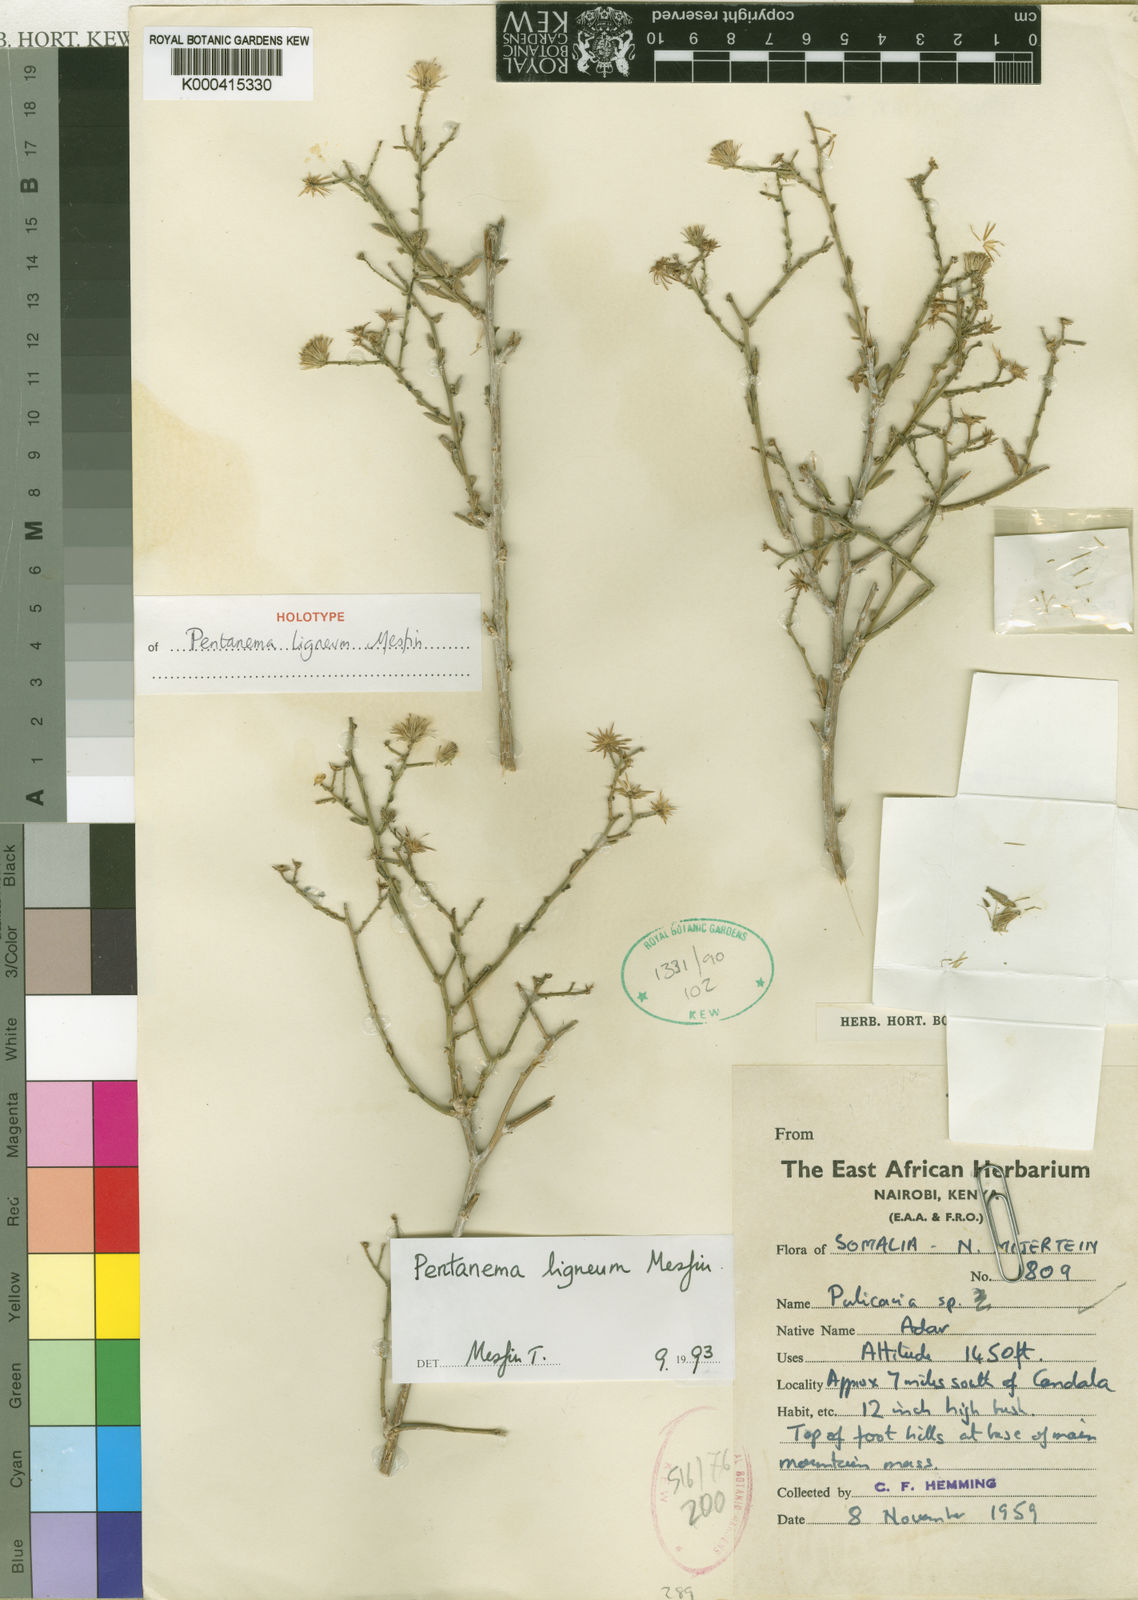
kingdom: Plantae
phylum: Tracheophyta
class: Magnoliopsida
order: Asterales
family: Asteraceae
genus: Vicoa
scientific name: Vicoa lignea
